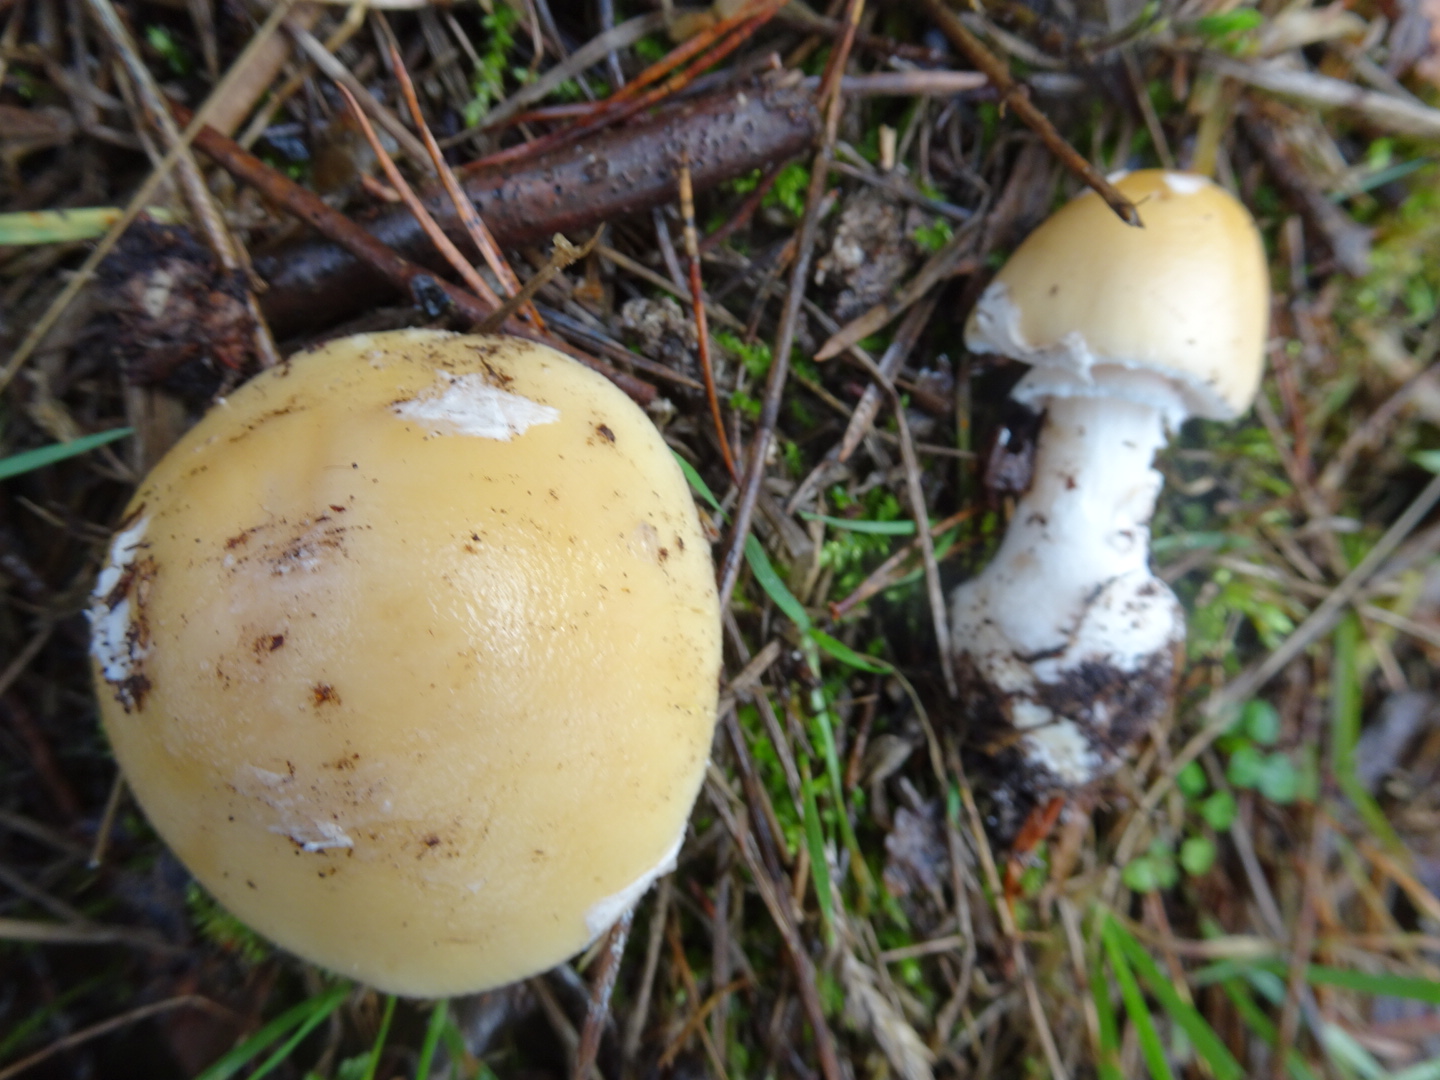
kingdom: Fungi
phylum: Basidiomycota
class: Agaricomycetes
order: Agaricales
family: Amanitaceae
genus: Amanita
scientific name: Amanita gemmata
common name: okkergul fluesvamp
